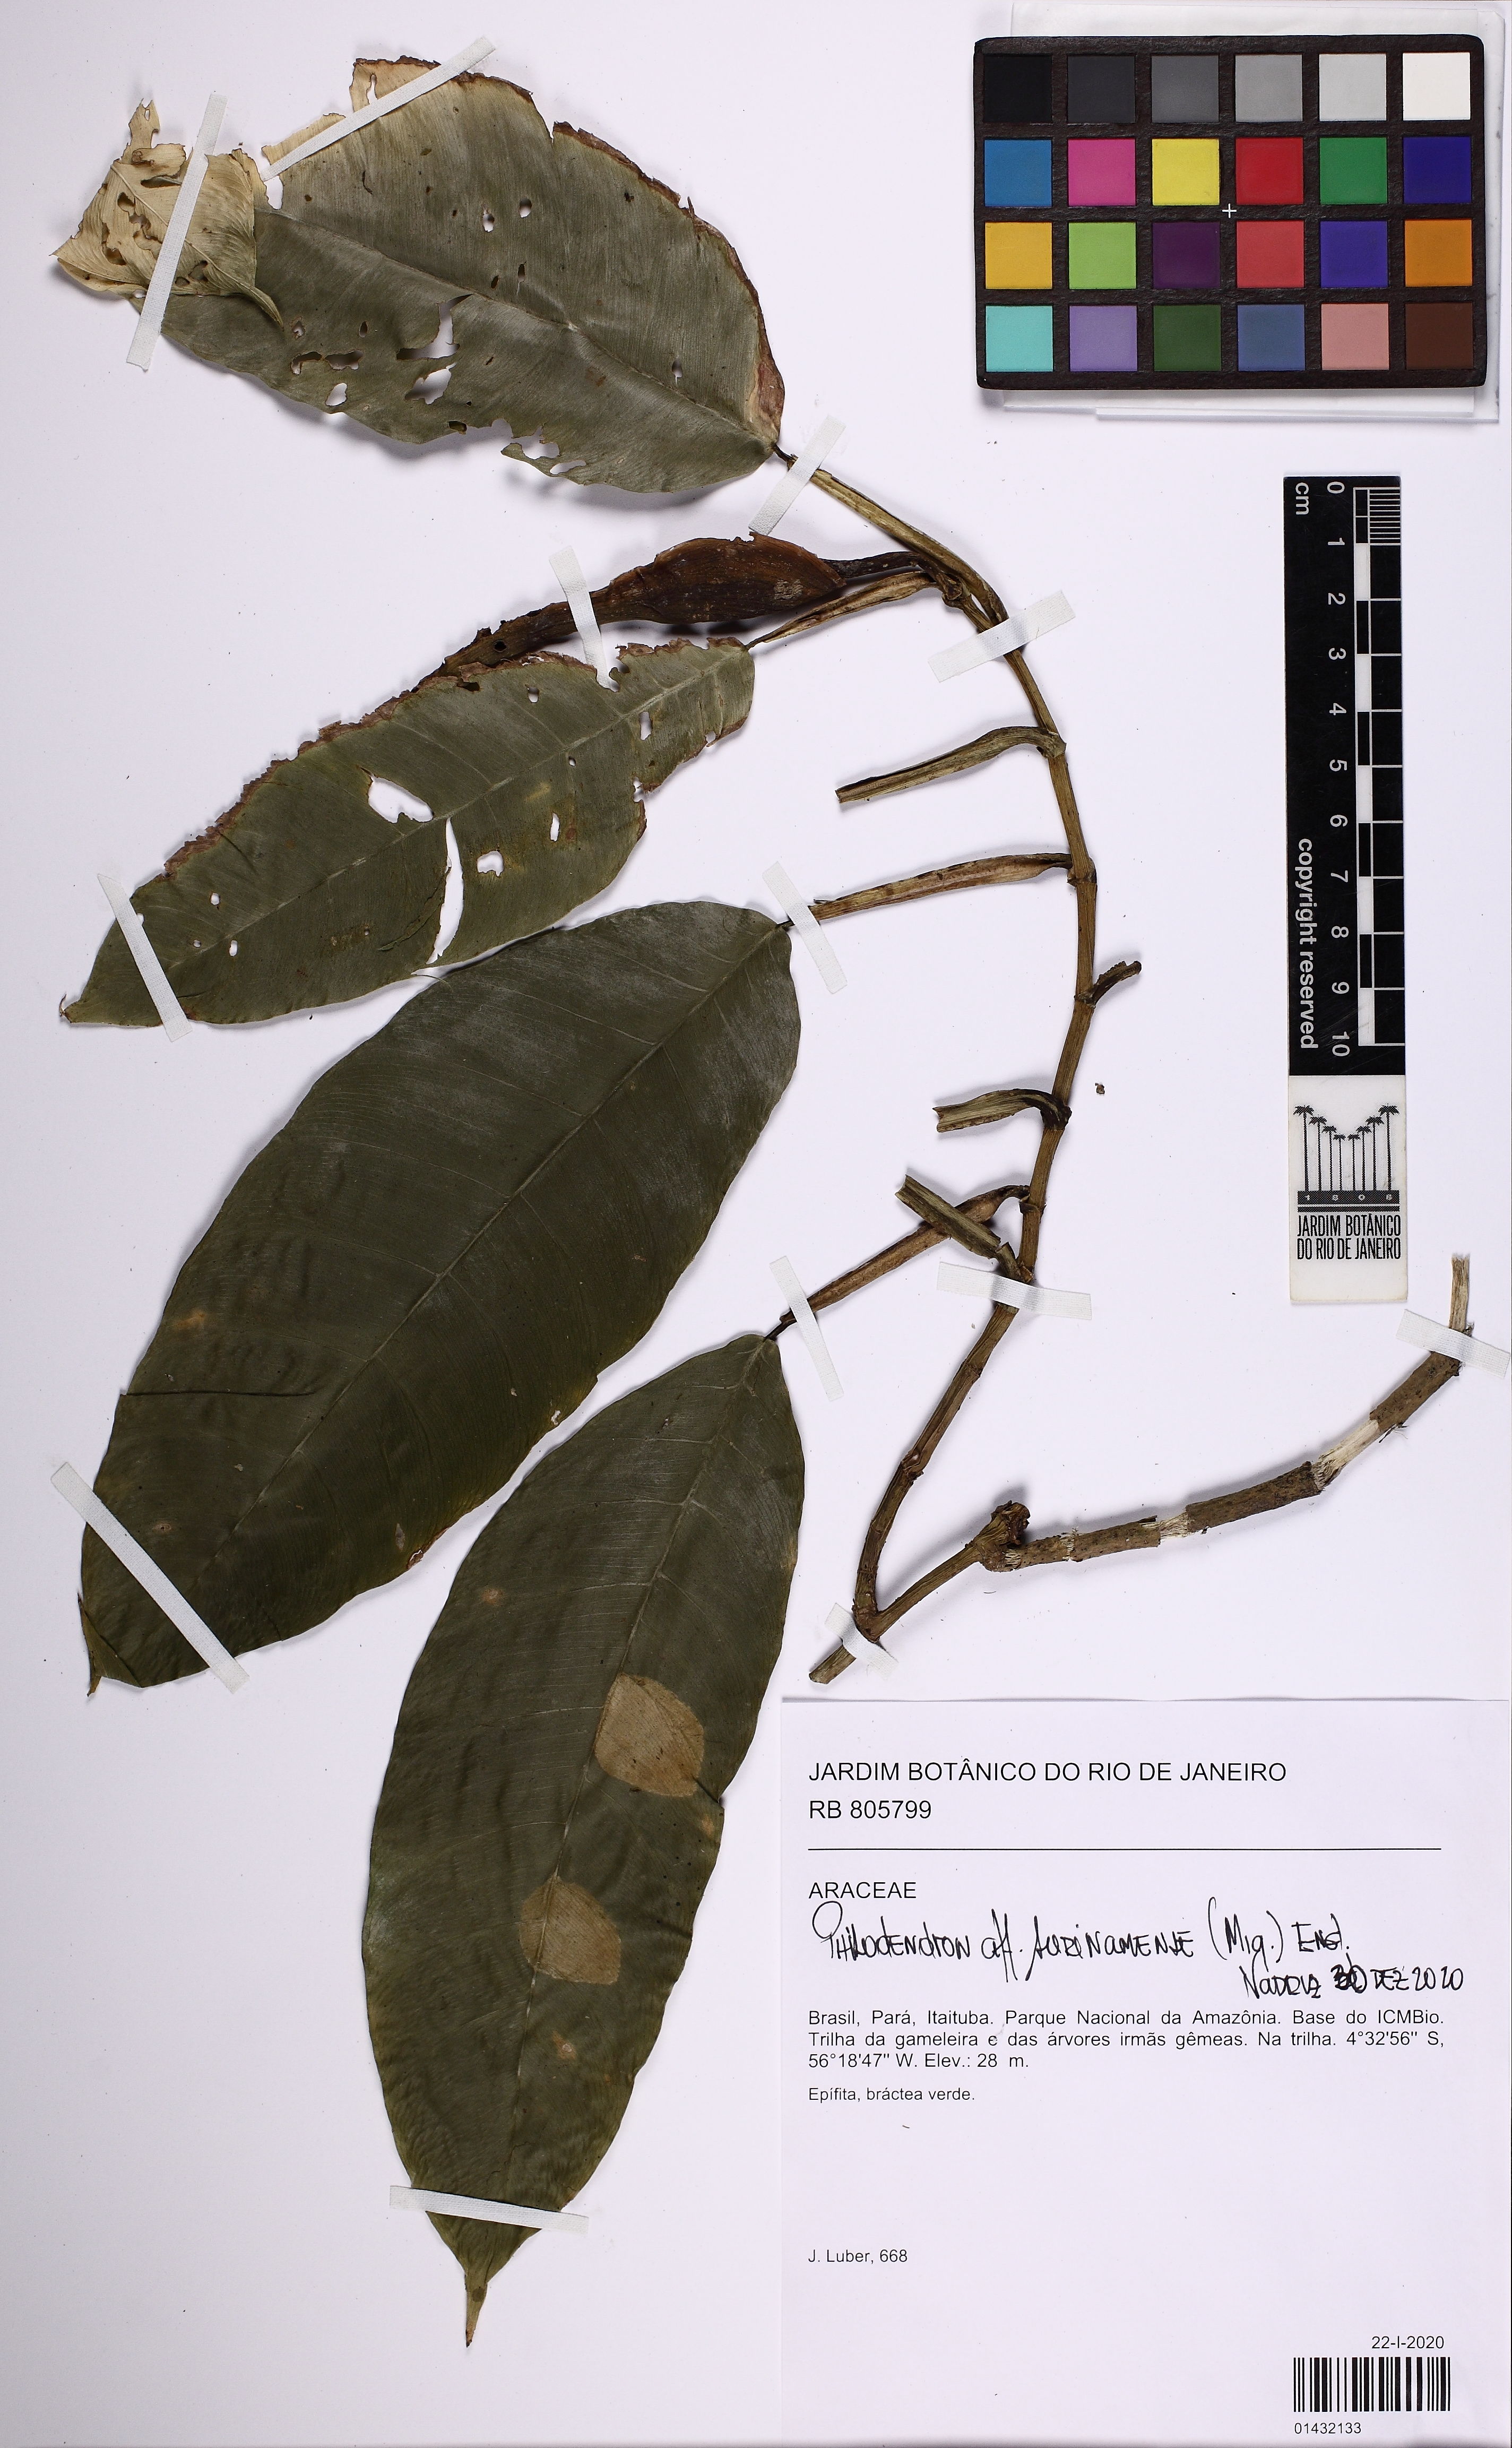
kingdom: Plantae
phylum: Tracheophyta
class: Liliopsida
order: Alismatales
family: Araceae
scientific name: Araceae
